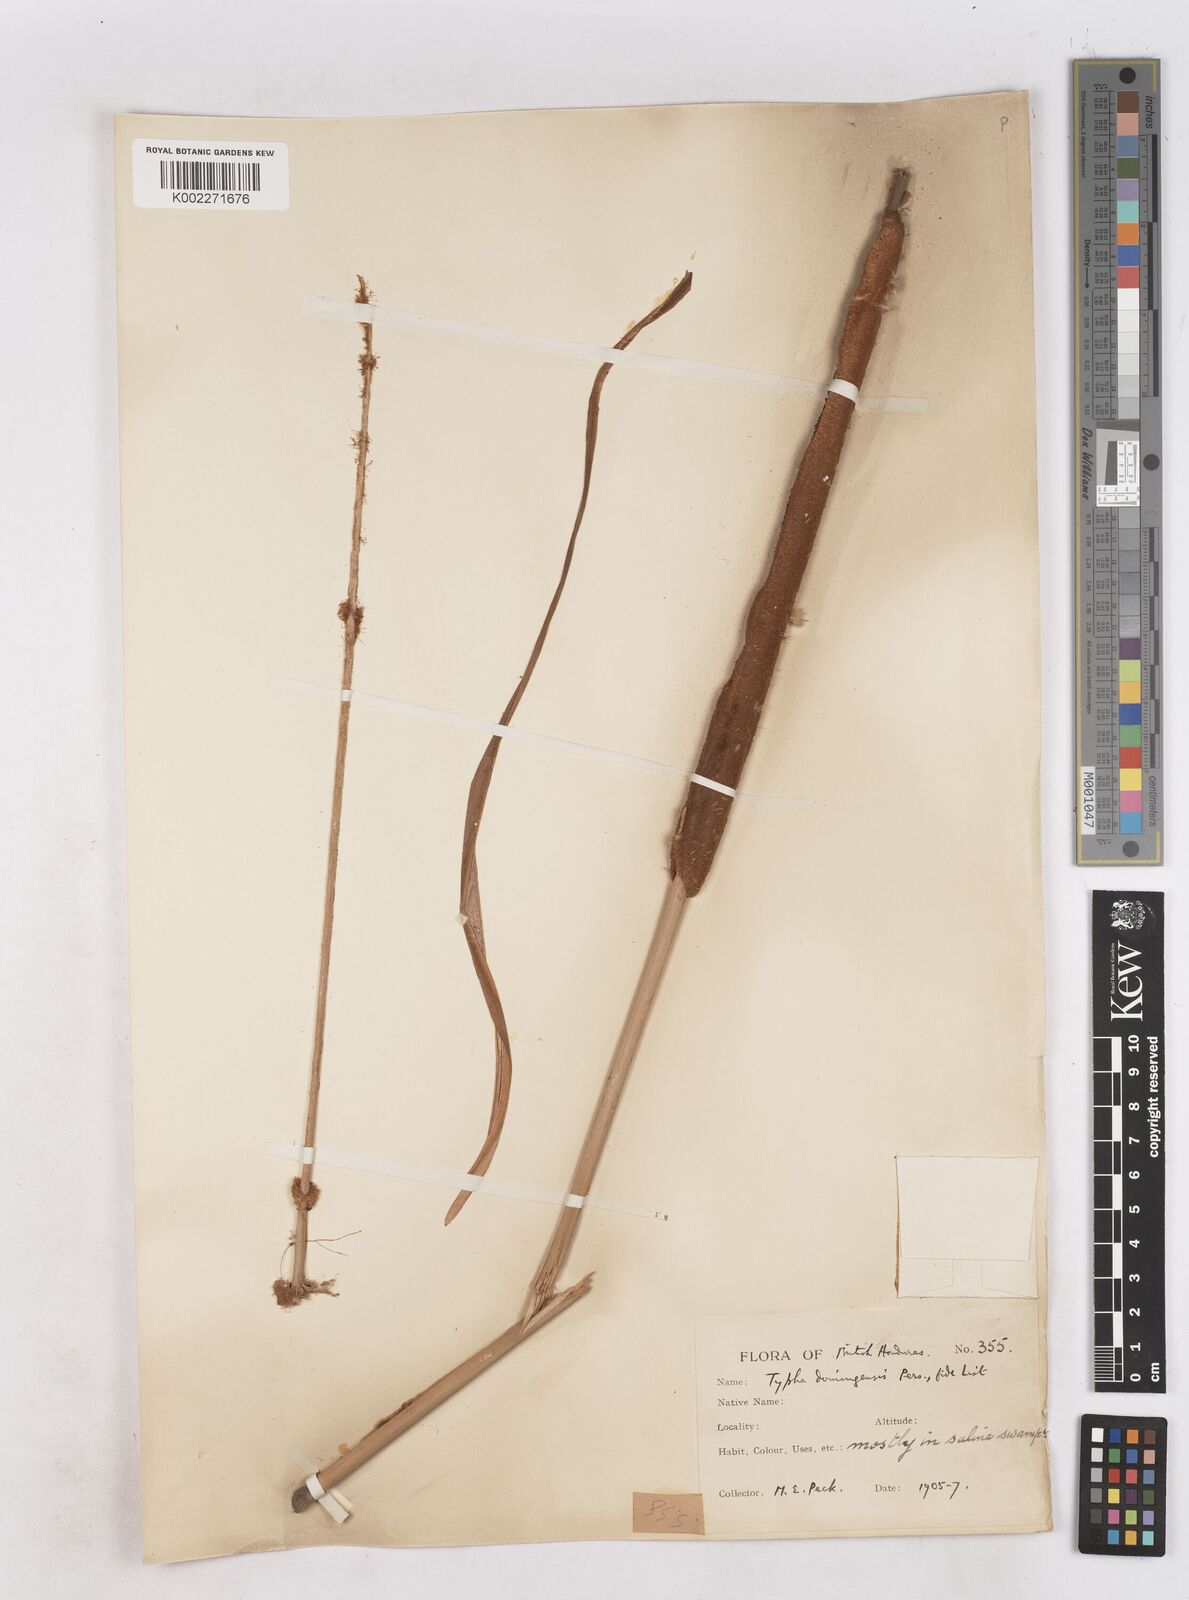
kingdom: Plantae
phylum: Tracheophyta
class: Liliopsida
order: Poales
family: Typhaceae
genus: Typha
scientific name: Typha domingensis
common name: Southern cattail
